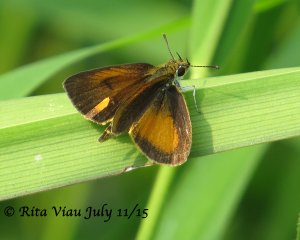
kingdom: Animalia
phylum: Arthropoda
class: Insecta
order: Lepidoptera
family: Hesperiidae
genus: Ancyloxypha
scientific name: Ancyloxypha numitor
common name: Least Skipper
